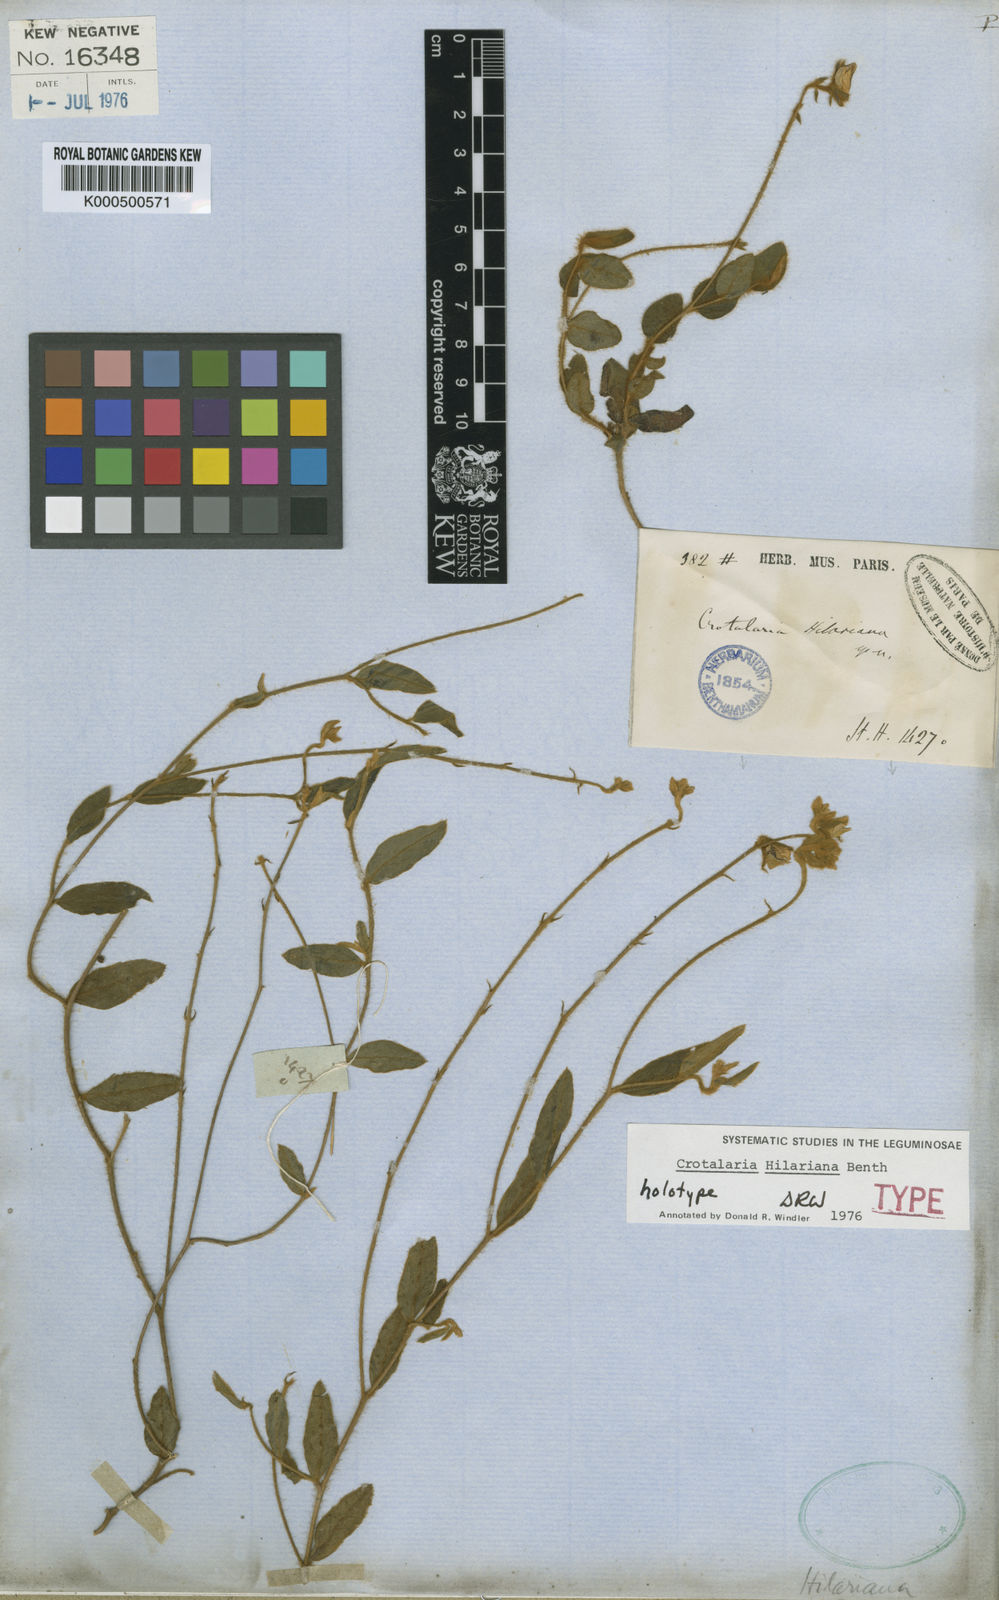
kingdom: Plantae
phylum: Tracheophyta
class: Magnoliopsida
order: Fabales
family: Fabaceae
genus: Crotalaria
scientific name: Crotalaria hilariana
